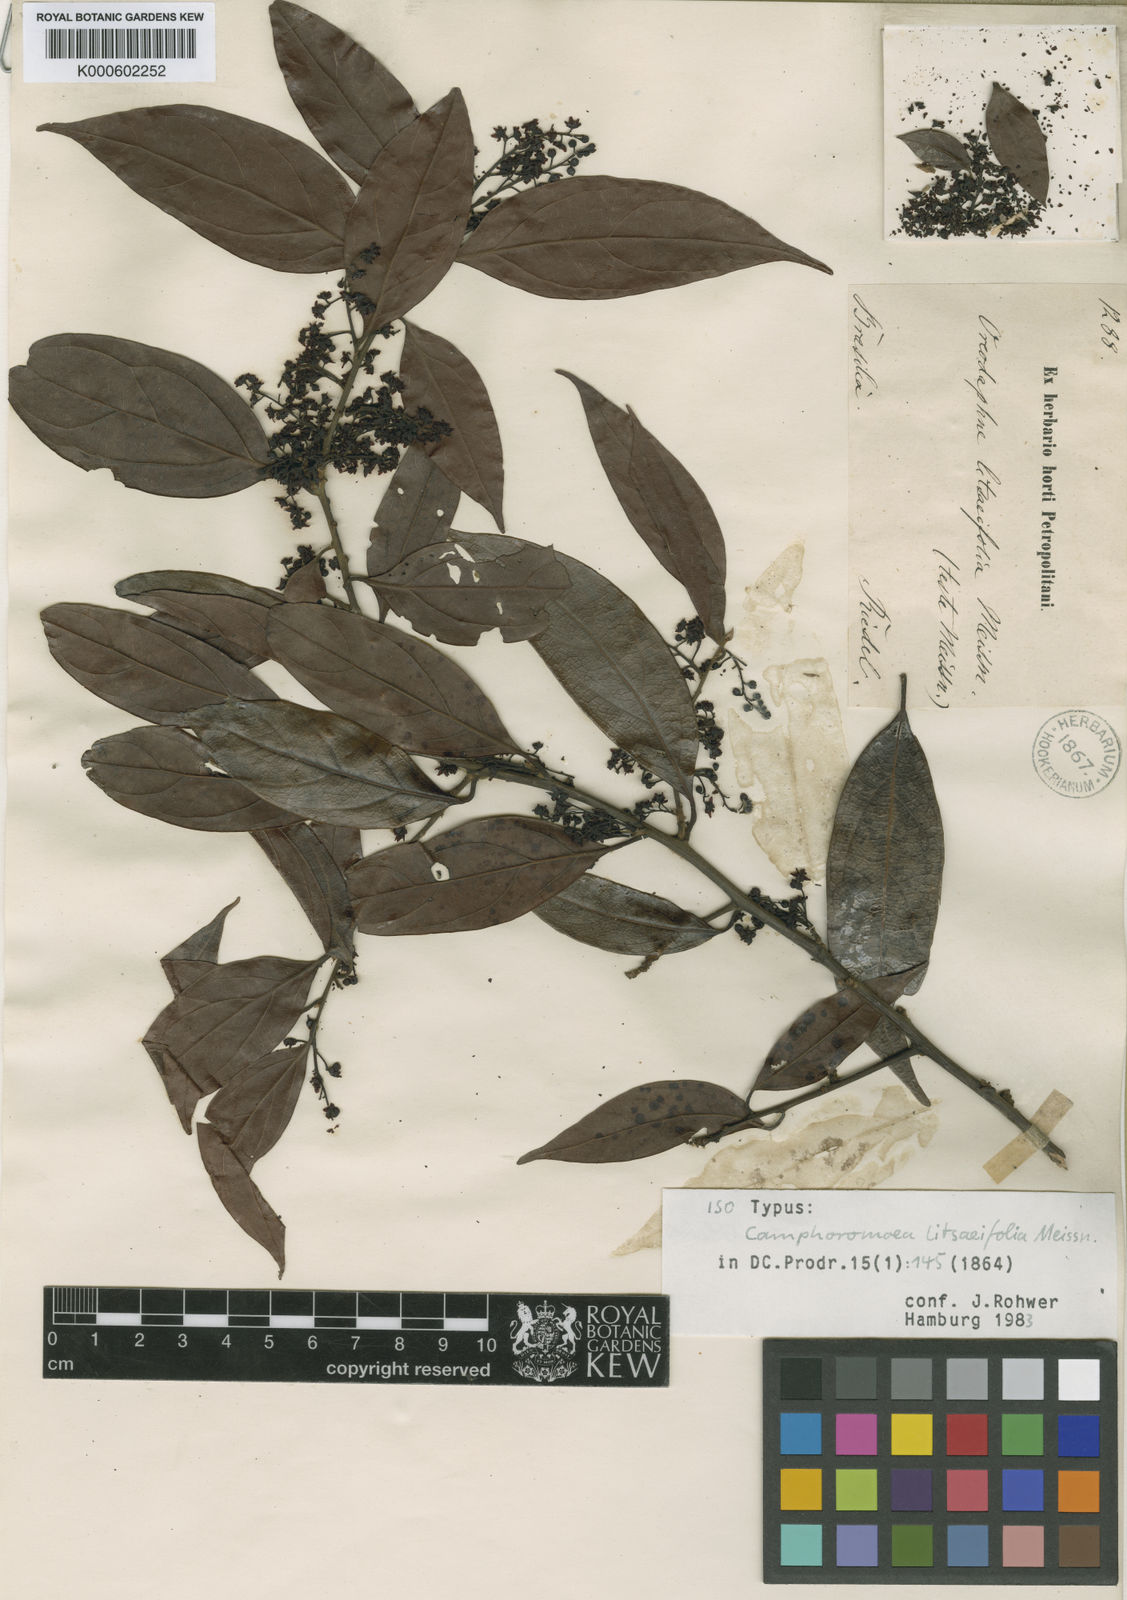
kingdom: Plantae
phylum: Tracheophyta
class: Magnoliopsida
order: Laurales
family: Lauraceae
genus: Ocotea
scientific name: Ocotea gracilis
